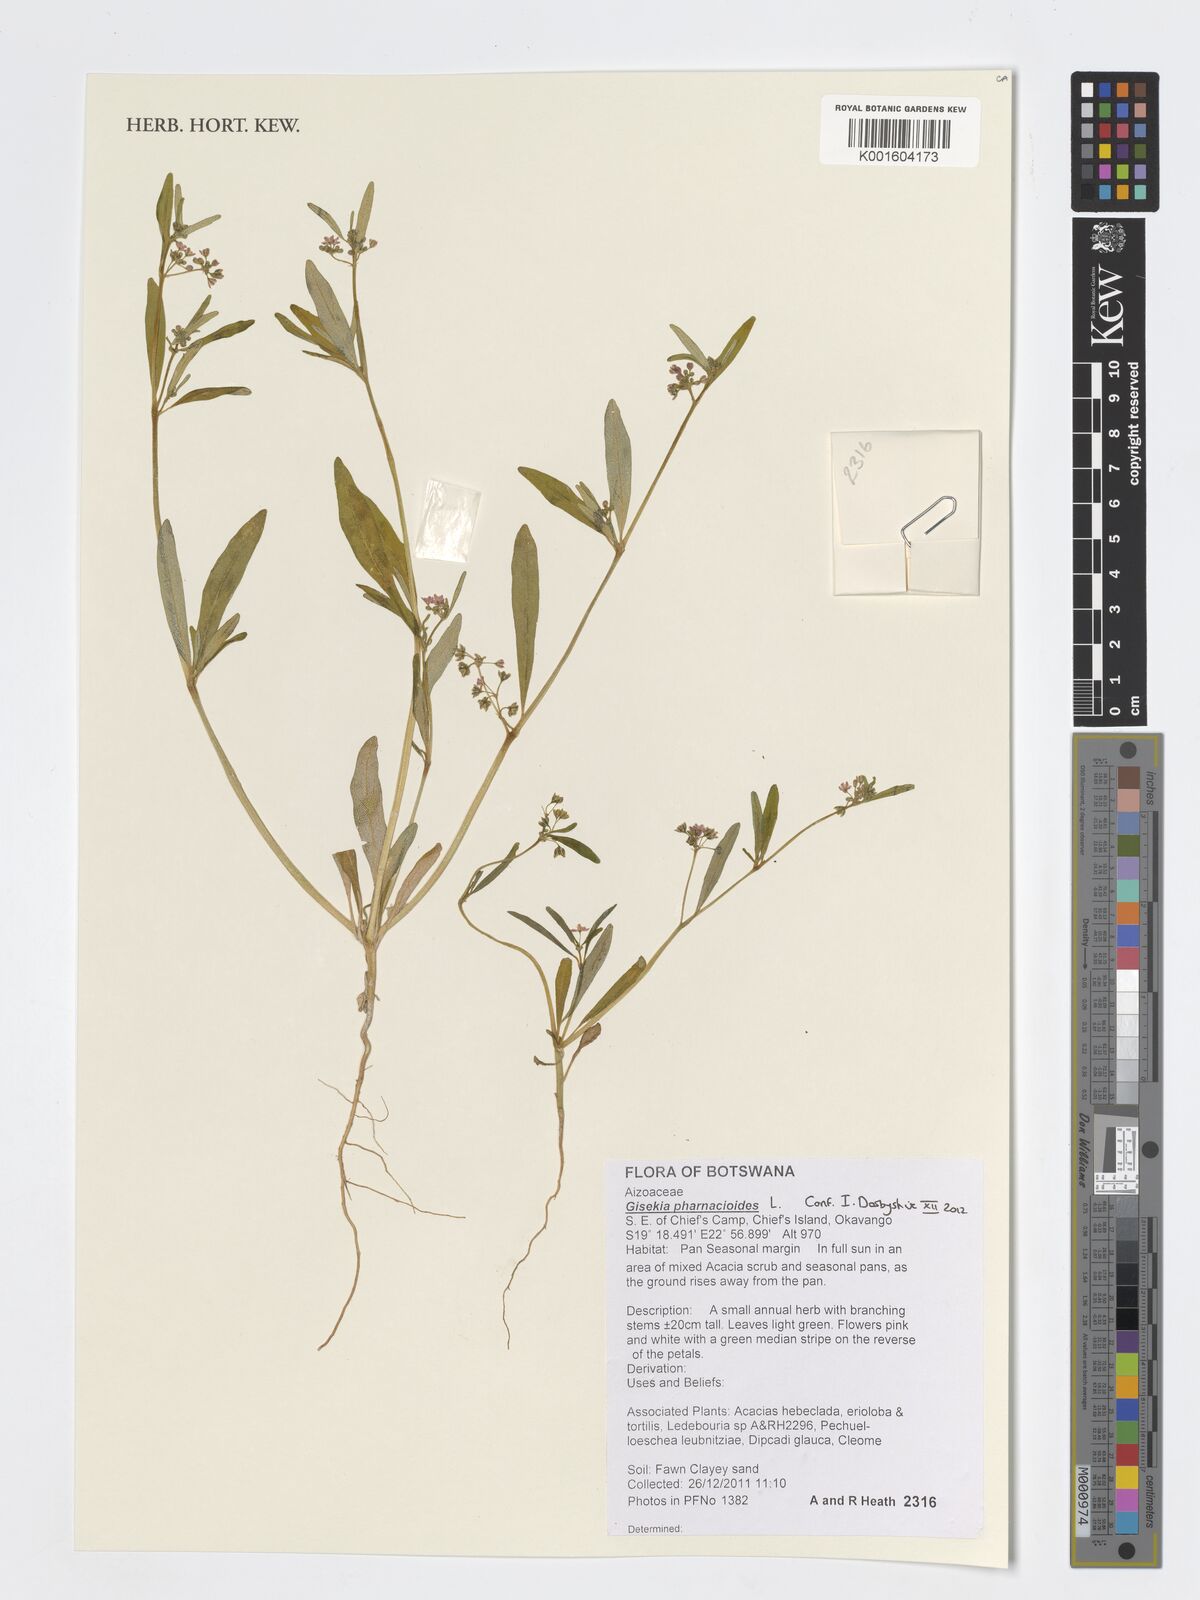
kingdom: Plantae
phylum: Tracheophyta
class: Magnoliopsida
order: Caryophyllales
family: Gisekiaceae
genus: Gisekia
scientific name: Gisekia pharnaceoides
